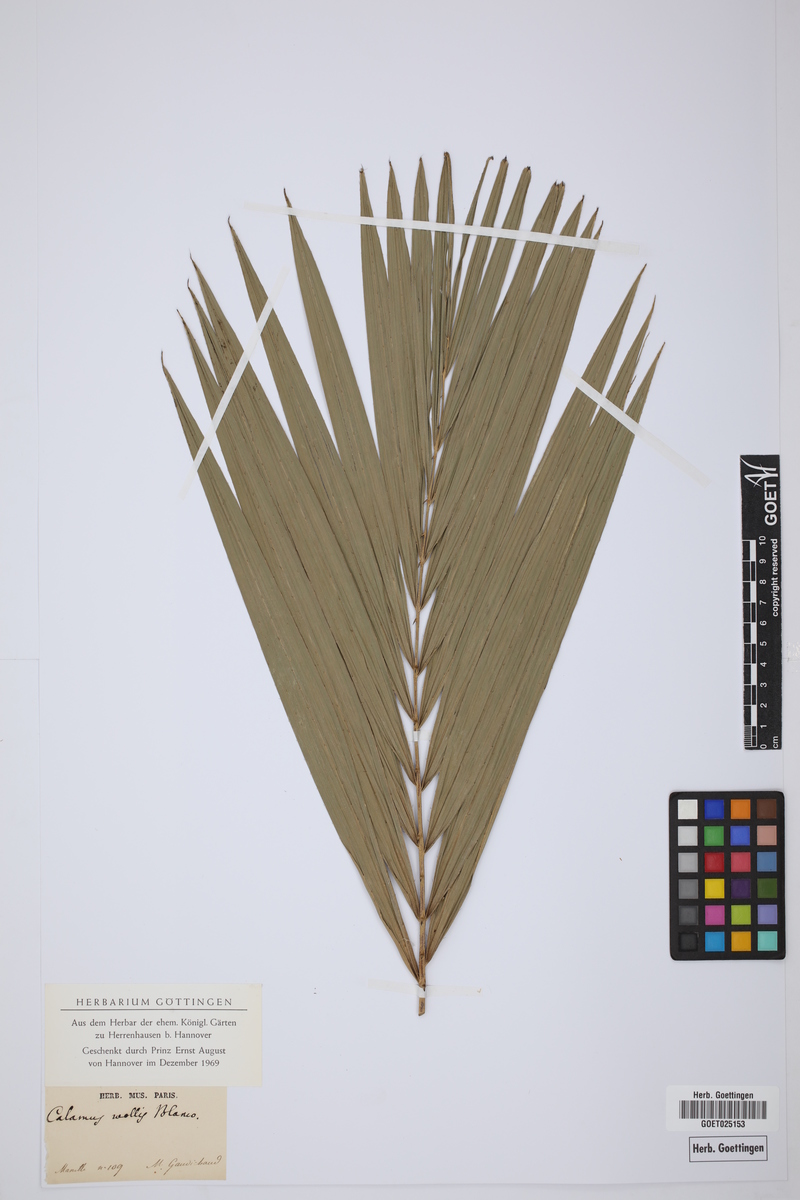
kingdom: Plantae
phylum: Tracheophyta
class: Liliopsida
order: Arecales
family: Arecaceae
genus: Calamus
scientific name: Calamus oblongus
